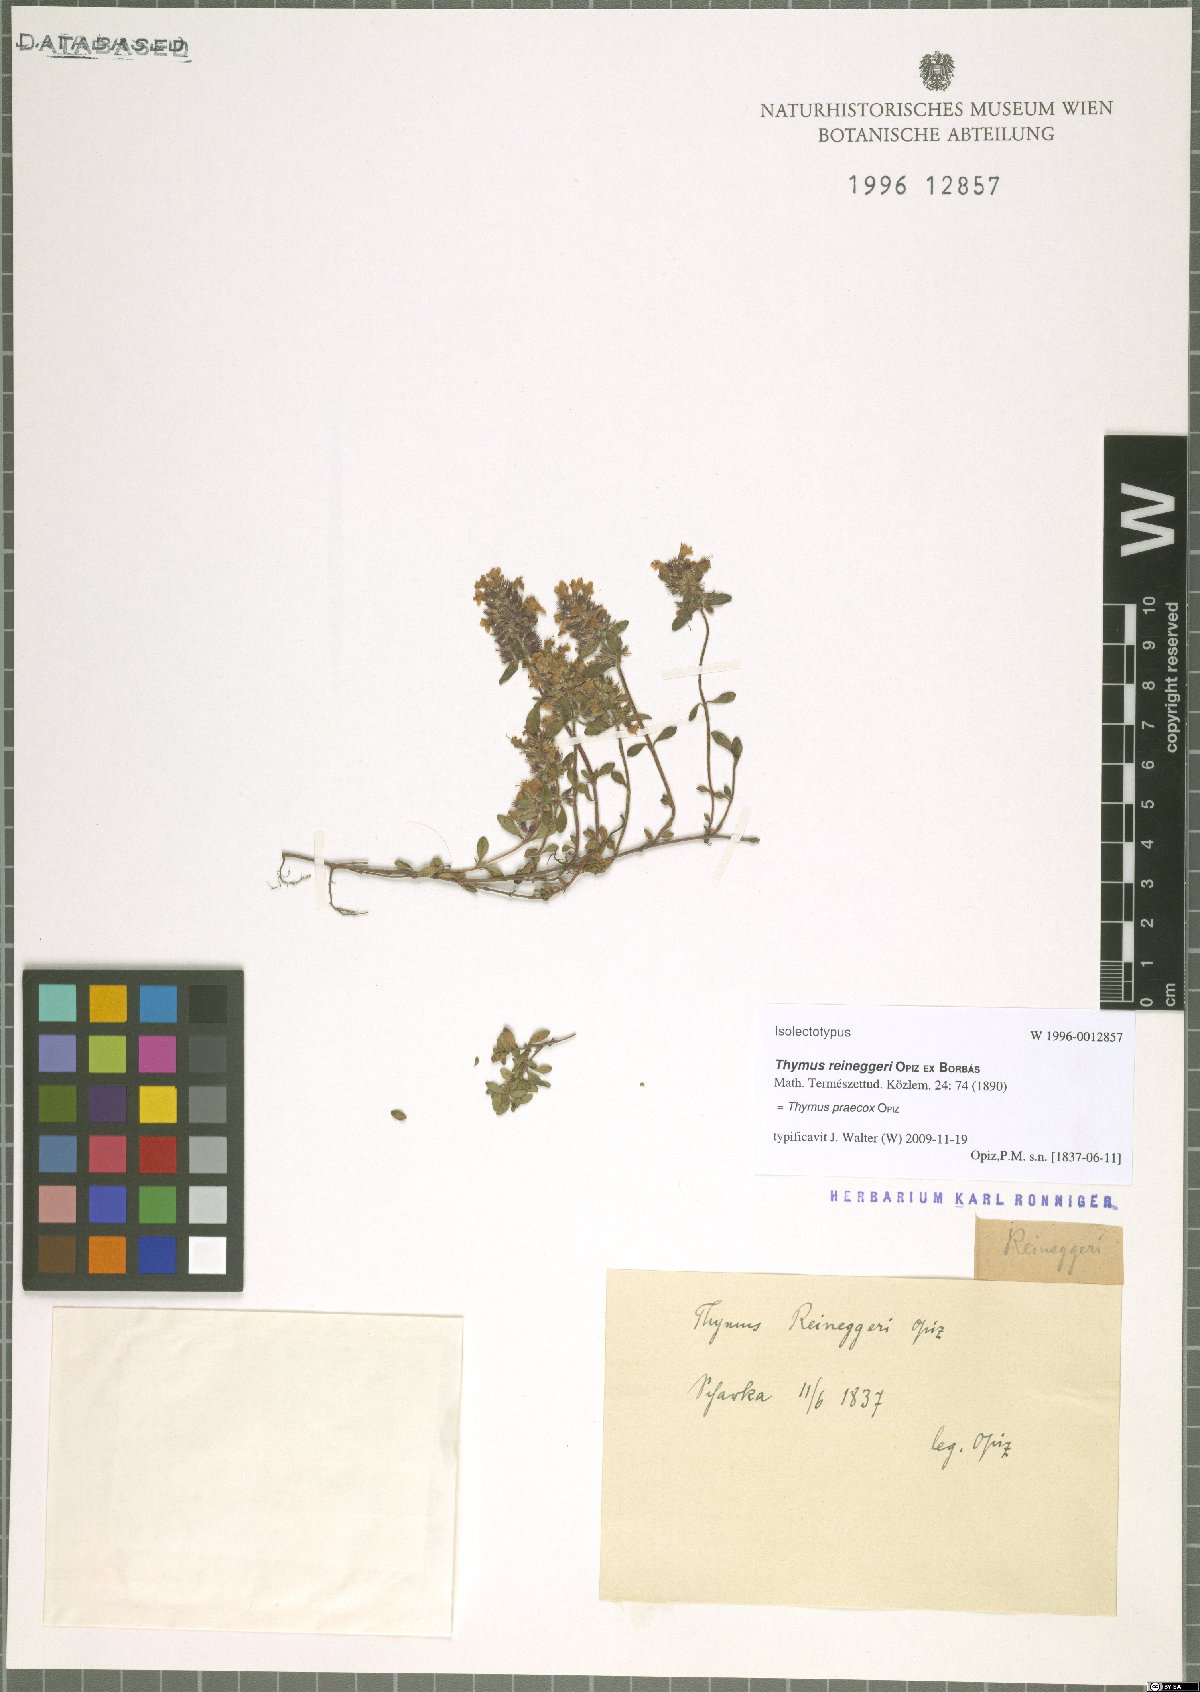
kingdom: Plantae
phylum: Tracheophyta
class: Magnoliopsida
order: Lamiales
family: Lamiaceae
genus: Thymus
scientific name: Thymus praecox
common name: Wild thyme
